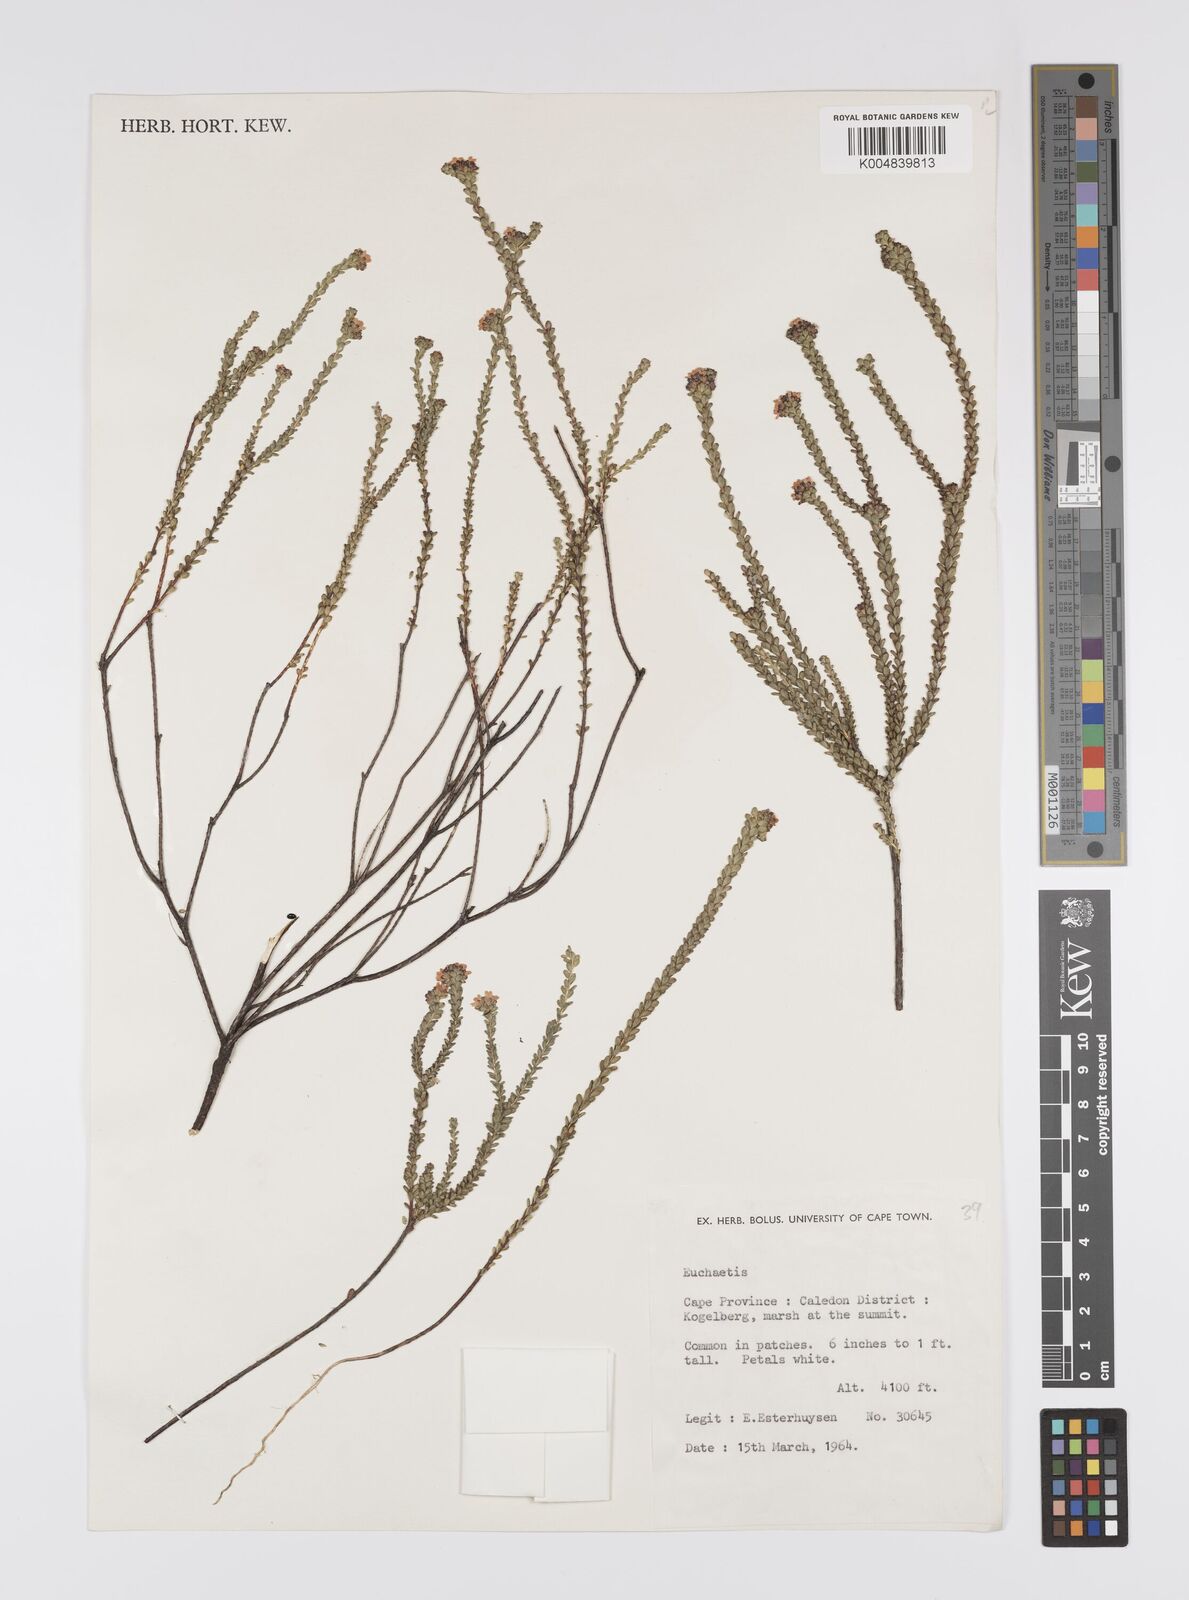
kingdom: Plantae
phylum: Tracheophyta
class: Magnoliopsida
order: Sapindales
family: Rutaceae
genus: Euchaetis
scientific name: Euchaetis
